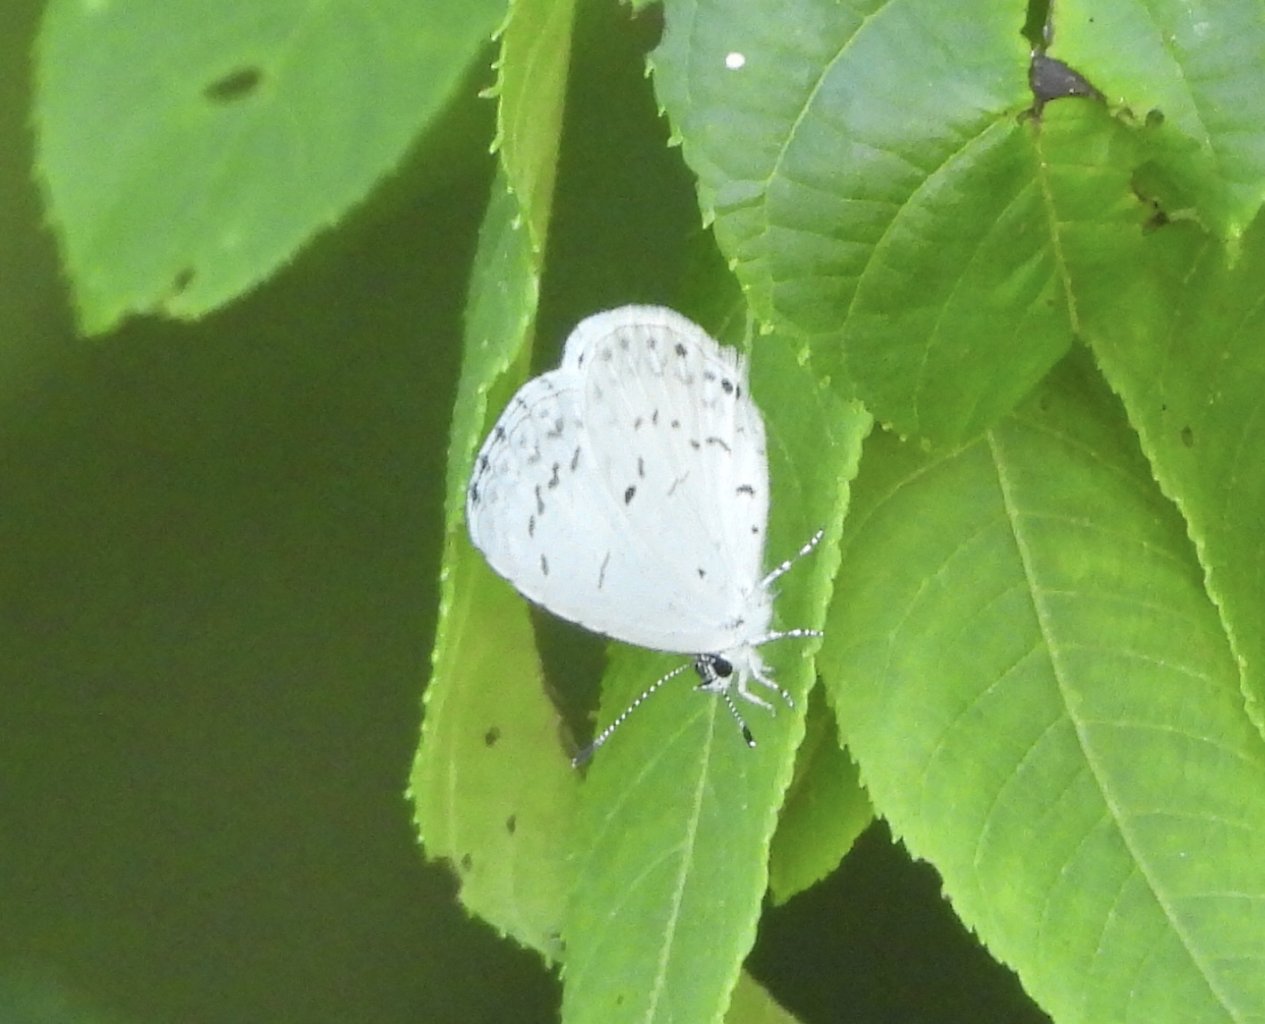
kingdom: Animalia
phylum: Arthropoda
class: Insecta
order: Lepidoptera
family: Lycaenidae
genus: Cyaniris
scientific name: Cyaniris neglecta
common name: Summer Azure
